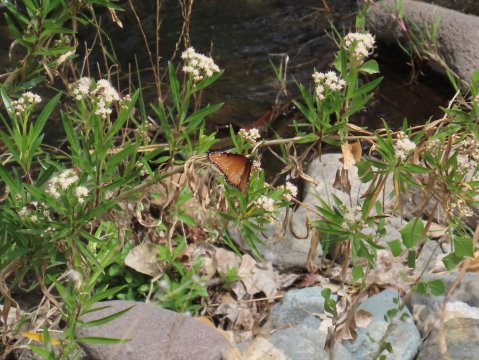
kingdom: Animalia
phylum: Arthropoda
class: Insecta
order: Lepidoptera
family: Nymphalidae
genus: Danaus
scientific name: Danaus gilippus
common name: Queen
